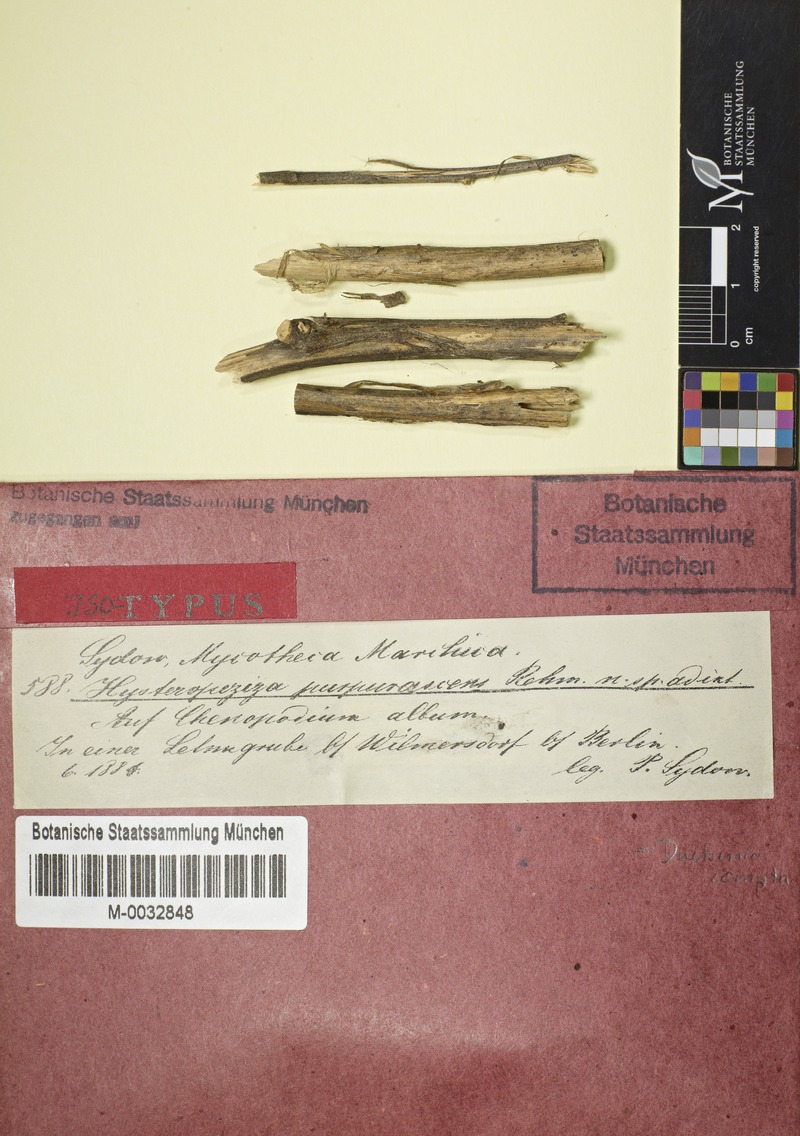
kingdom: Fungi
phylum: Ascomycota
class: Leotiomycetes
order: Helotiales
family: Calloriaceae
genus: Duebenia
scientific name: Duebenia compta
